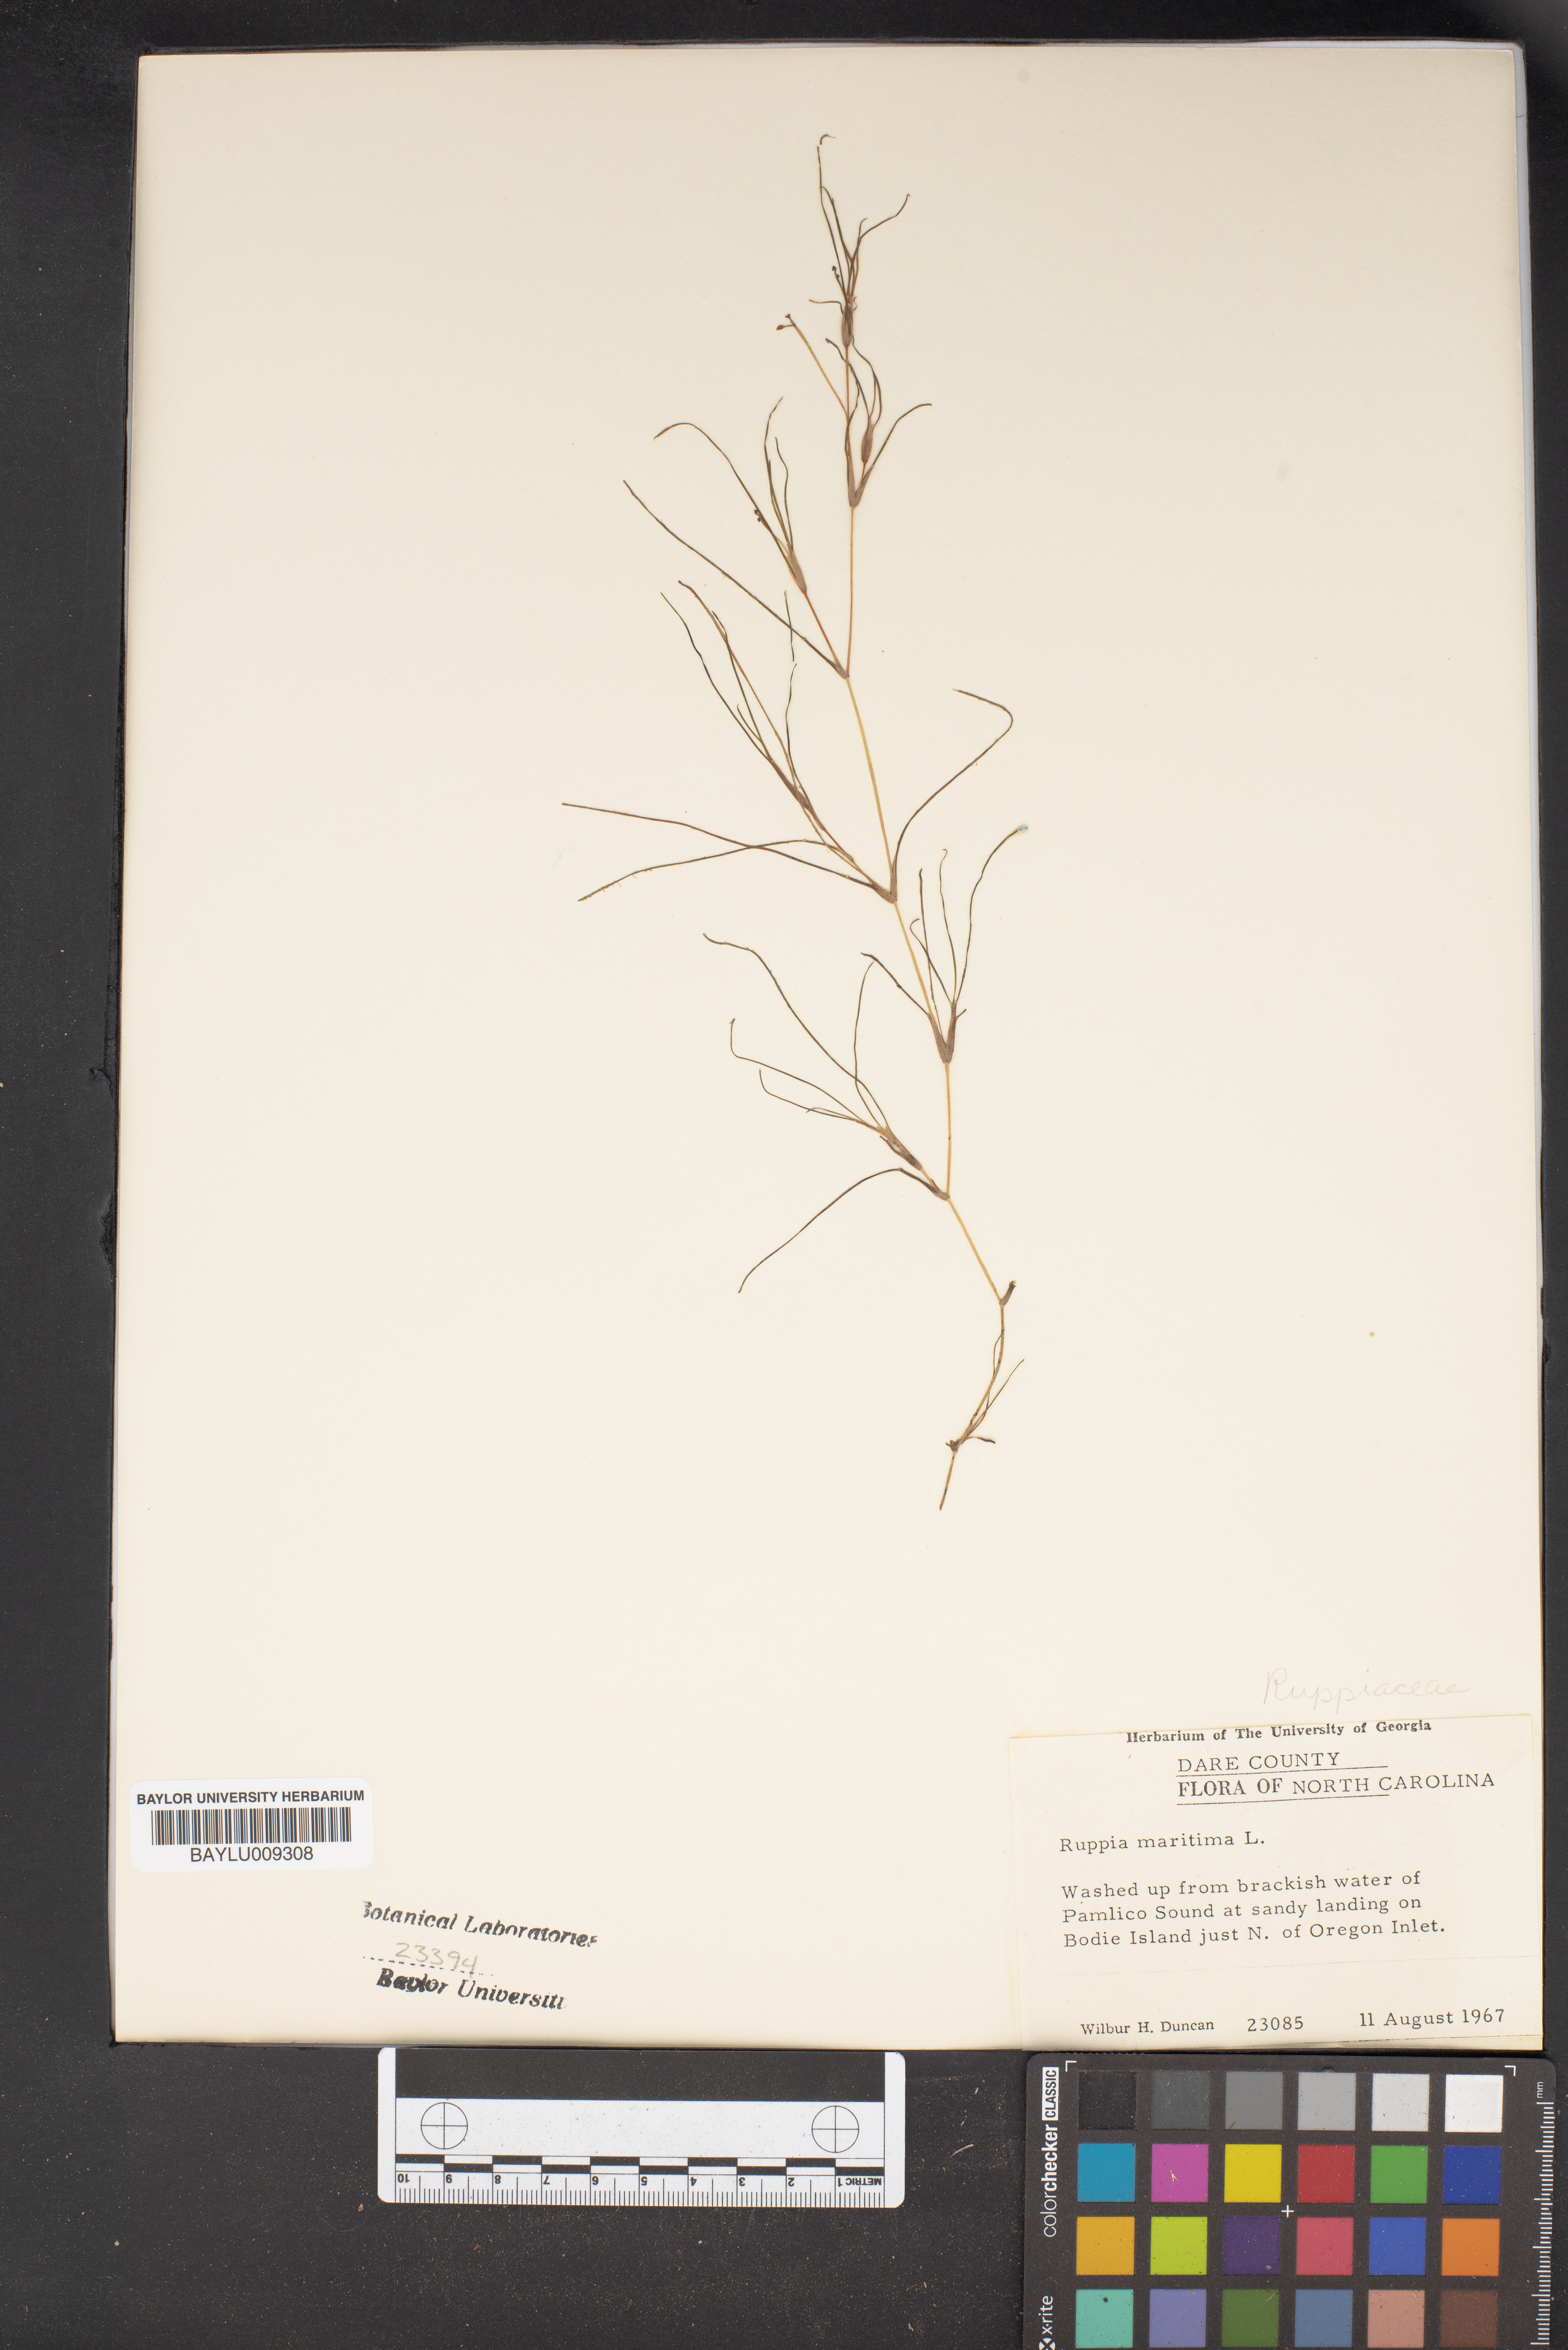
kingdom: Plantae
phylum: Tracheophyta
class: Liliopsida
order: Alismatales
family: Ruppiaceae
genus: Ruppia
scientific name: Ruppia maritima
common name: Beaked tasselweed
